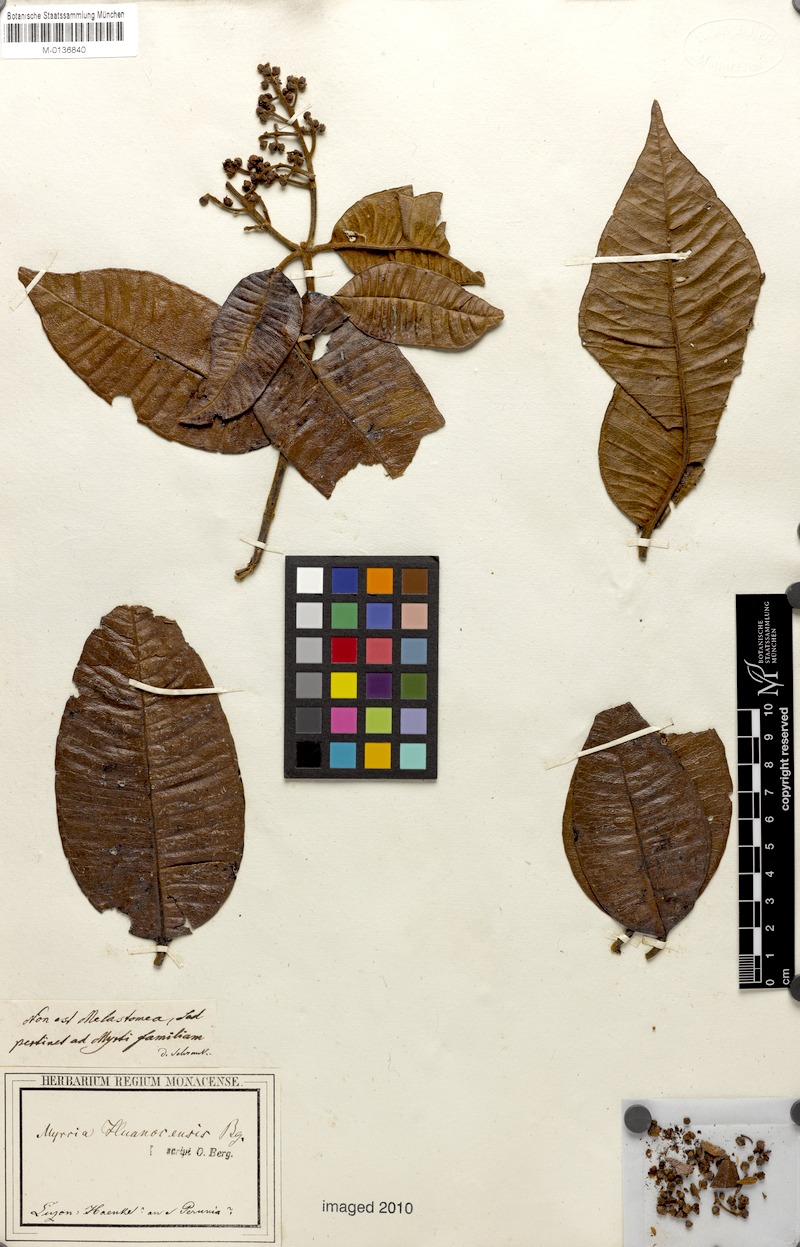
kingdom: Plantae
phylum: Tracheophyta
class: Magnoliopsida
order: Myrtales
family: Myrtaceae
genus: Myrcia
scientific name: Myrcia mollis
